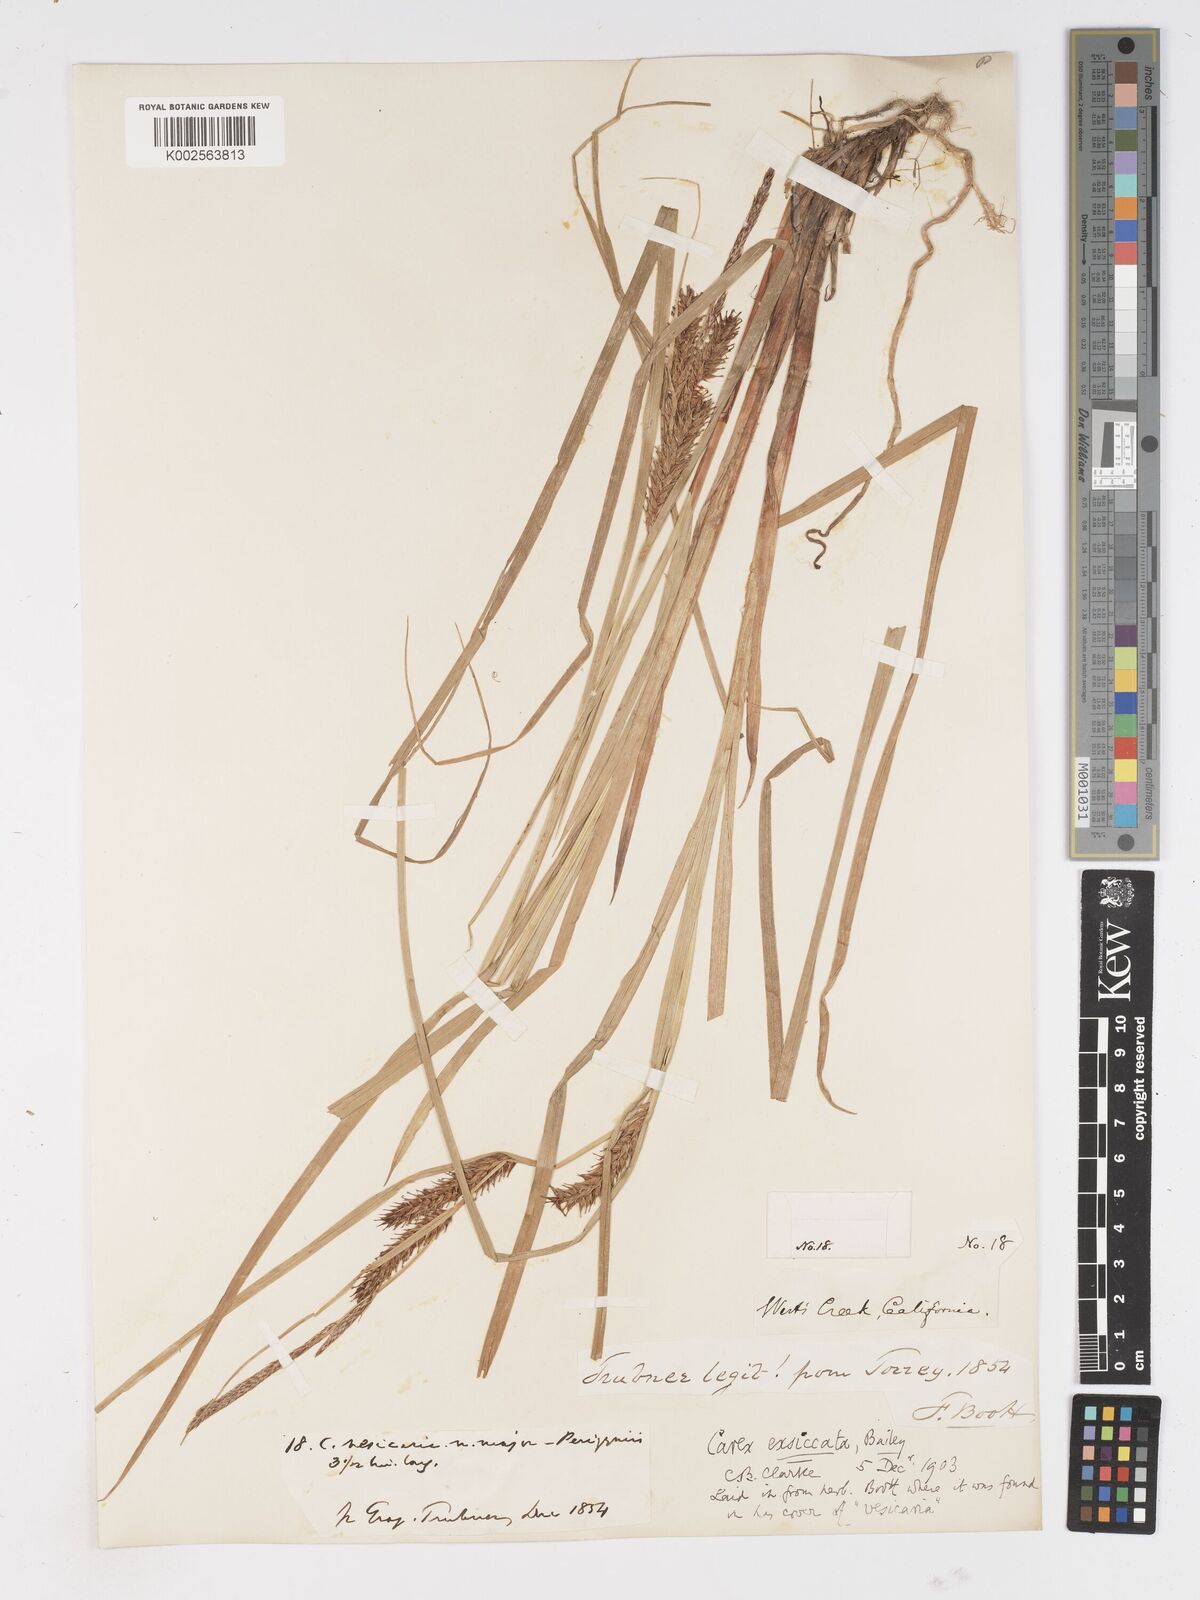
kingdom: Plantae
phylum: Tracheophyta
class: Liliopsida
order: Poales
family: Cyperaceae
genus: Carex
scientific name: Carex exsiccata
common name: Beaked sedge
